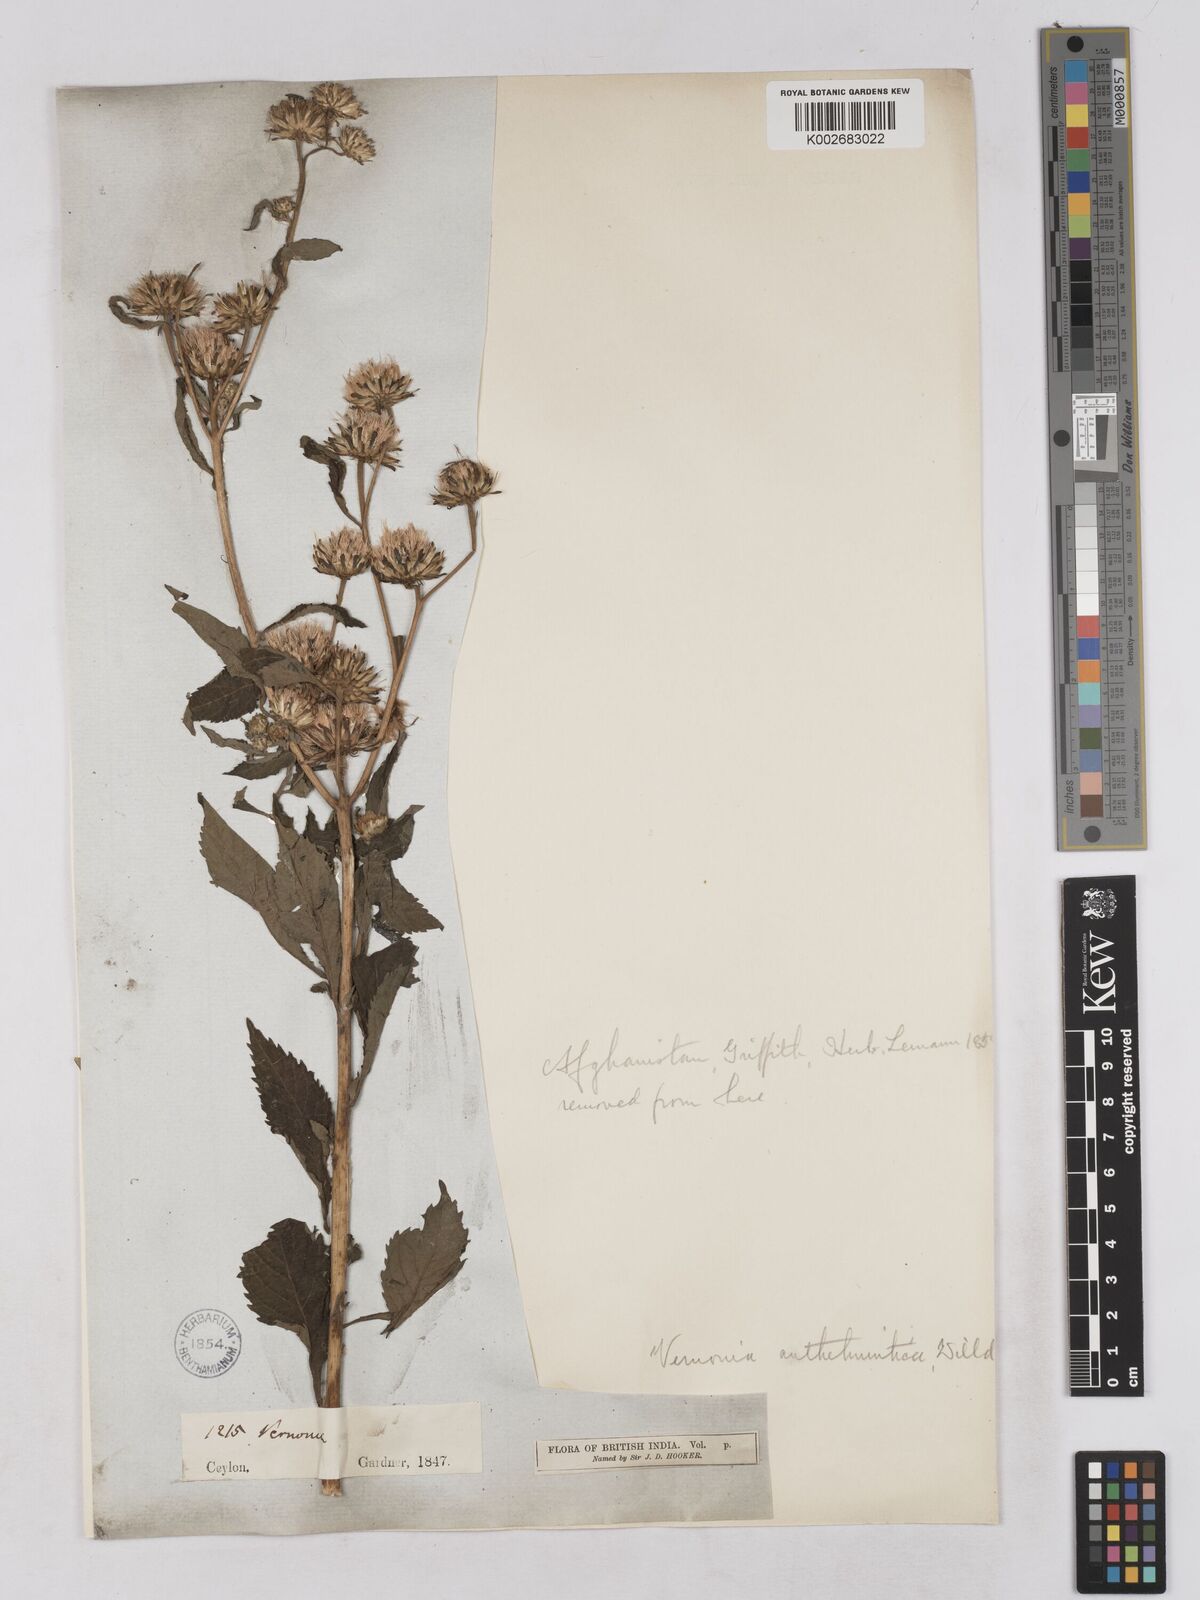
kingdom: Plantae
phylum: Tracheophyta
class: Magnoliopsida
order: Asterales
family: Asteraceae
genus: Baccharoides
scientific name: Baccharoides anthelmintica
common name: Kinka-oil
